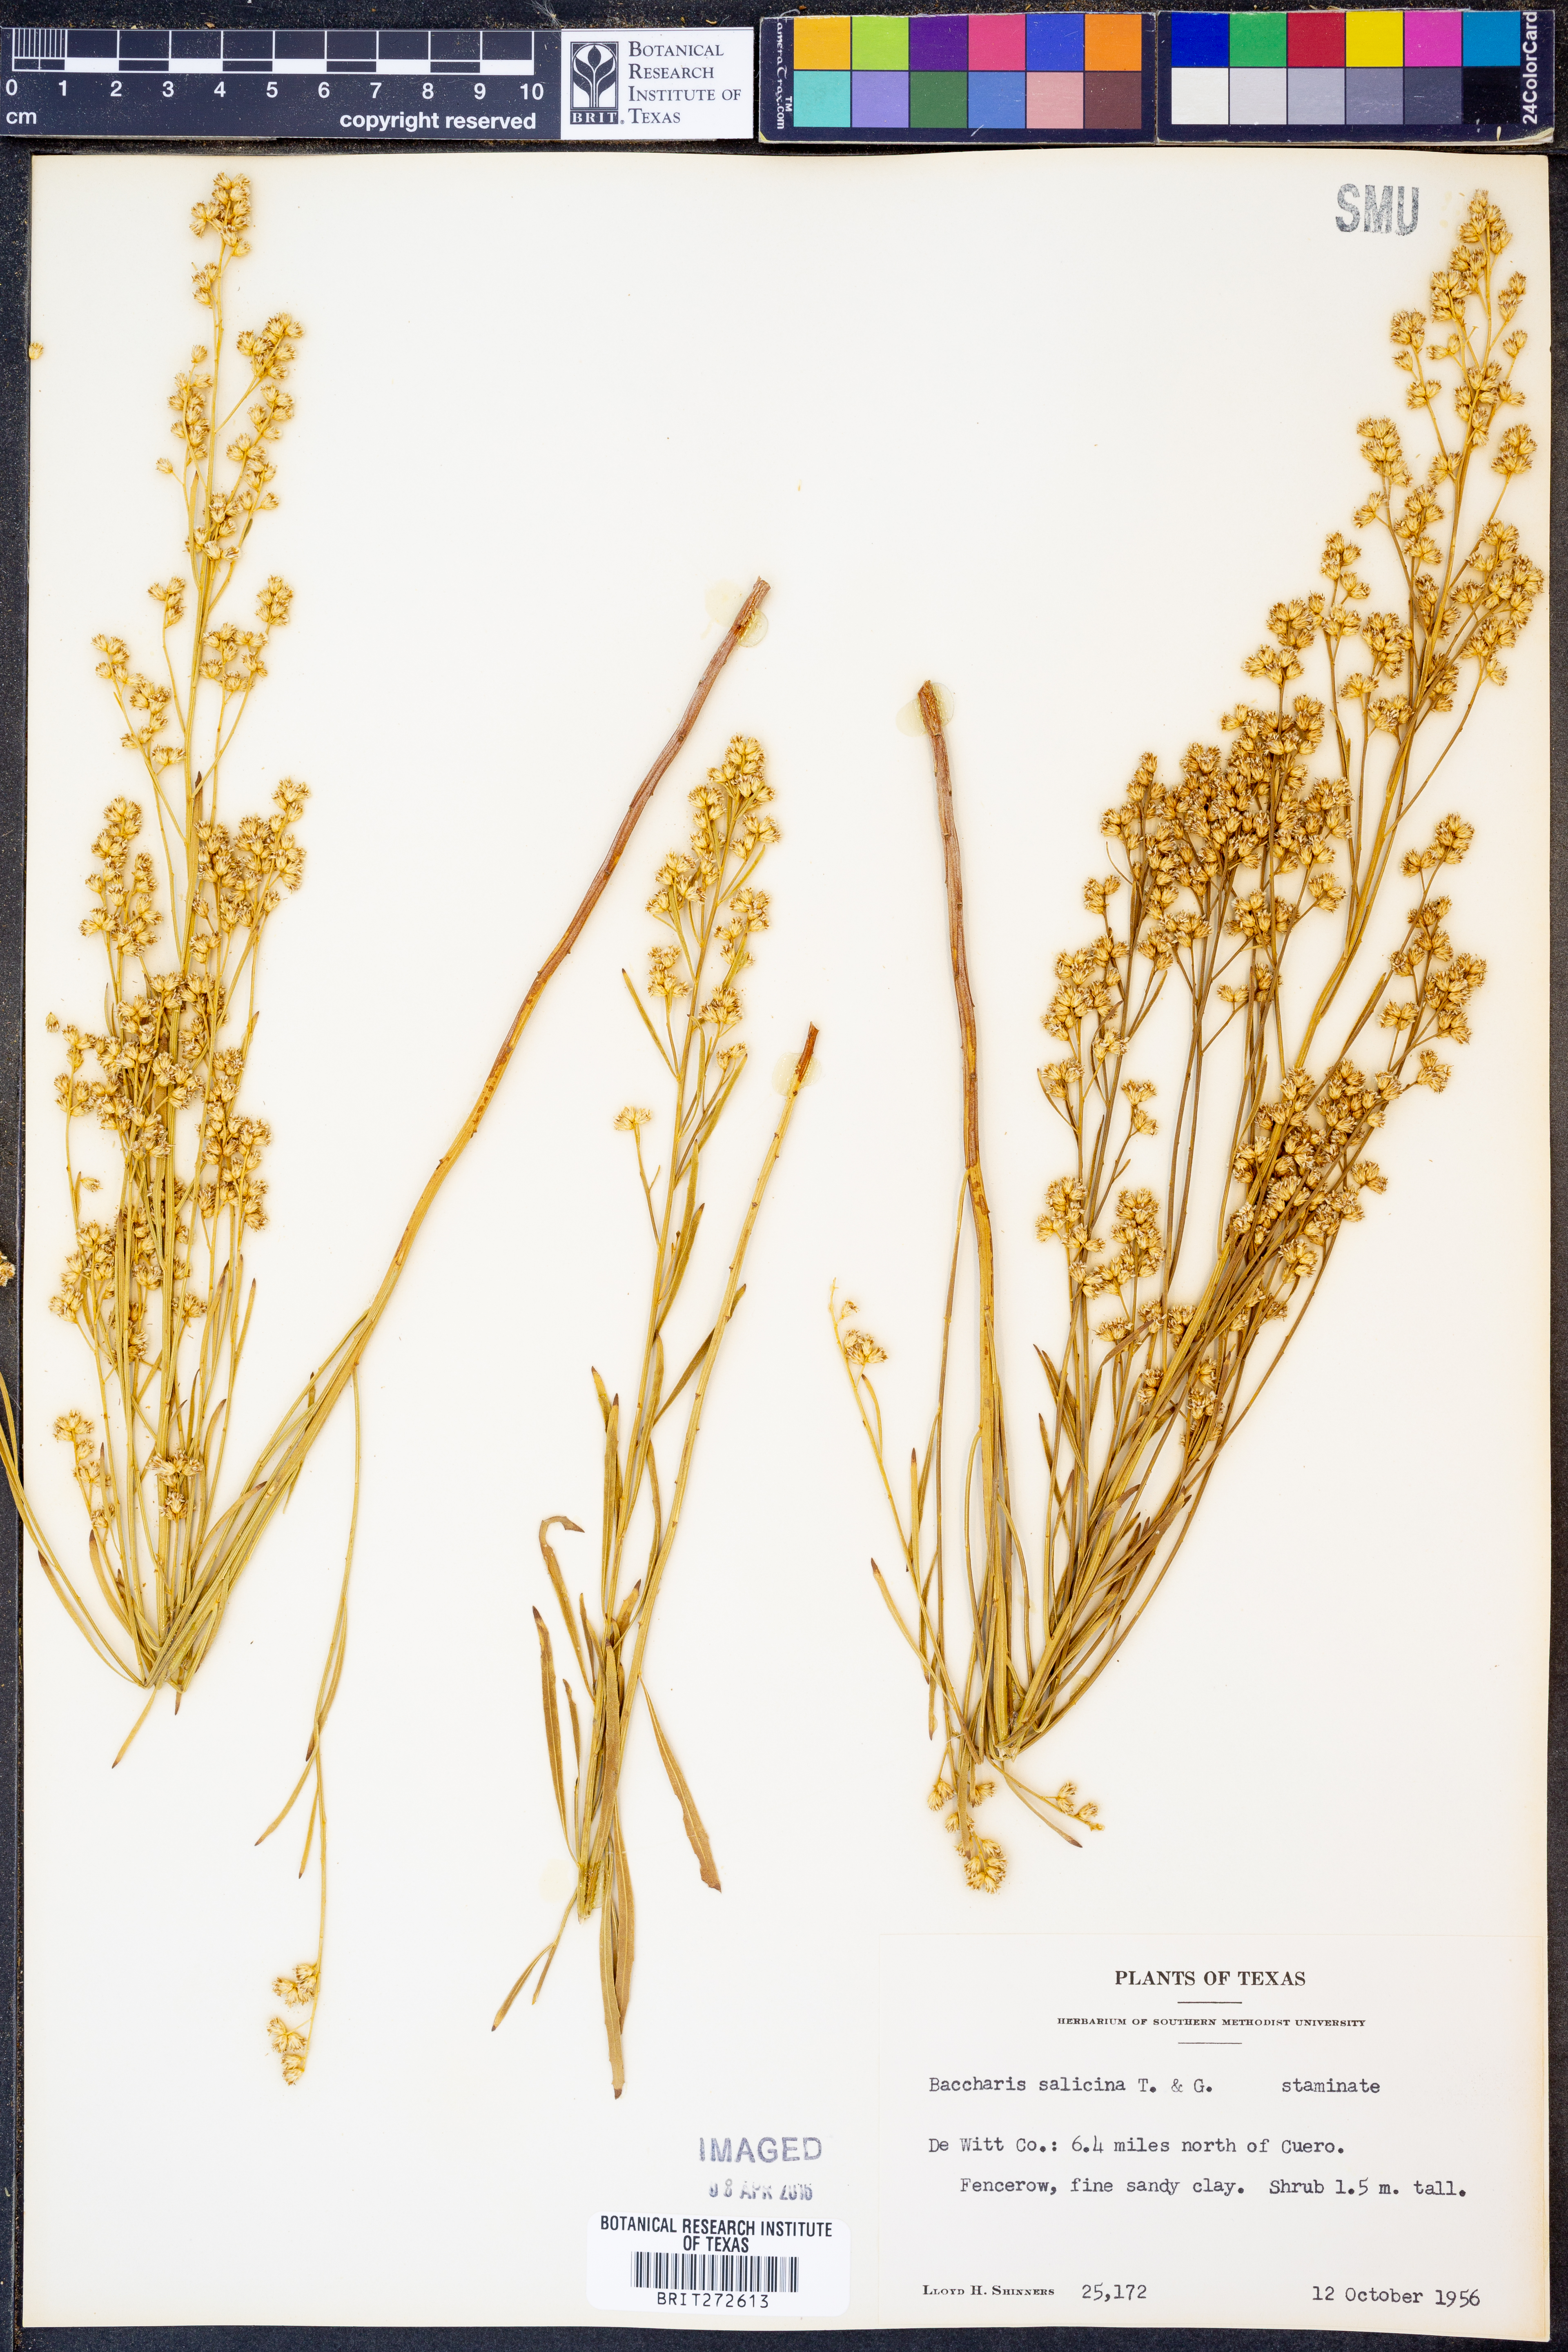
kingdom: Plantae
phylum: Tracheophyta
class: Magnoliopsida
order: Asterales
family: Asteraceae
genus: Baccharis
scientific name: Baccharis salicina
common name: Willow baccharis
